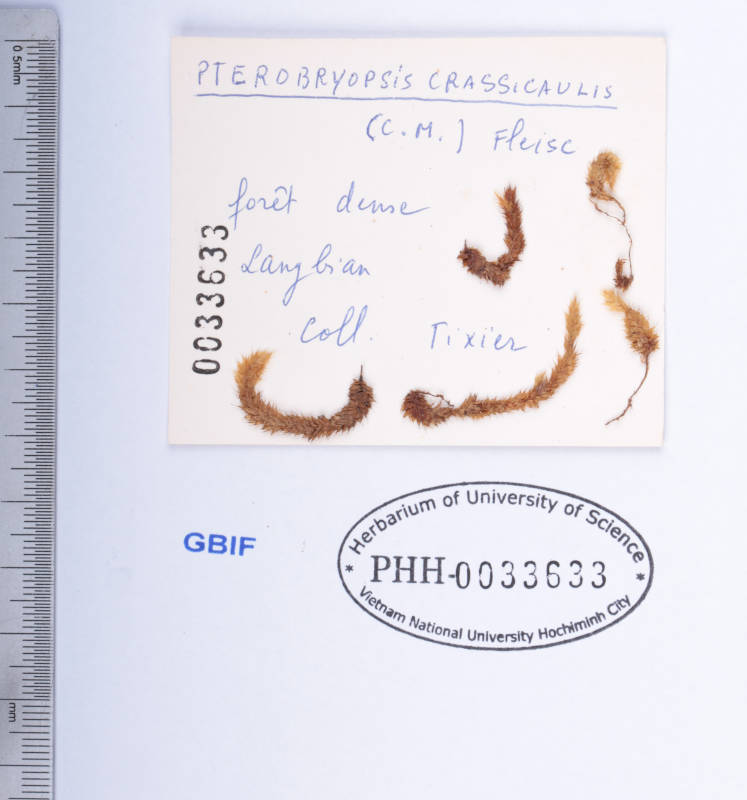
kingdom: Plantae
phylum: Bryophyta
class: Bryopsida
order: Hypnales
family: Pterobryaceae
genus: Pterobryopsis
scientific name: Pterobryopsis crassicaulis
